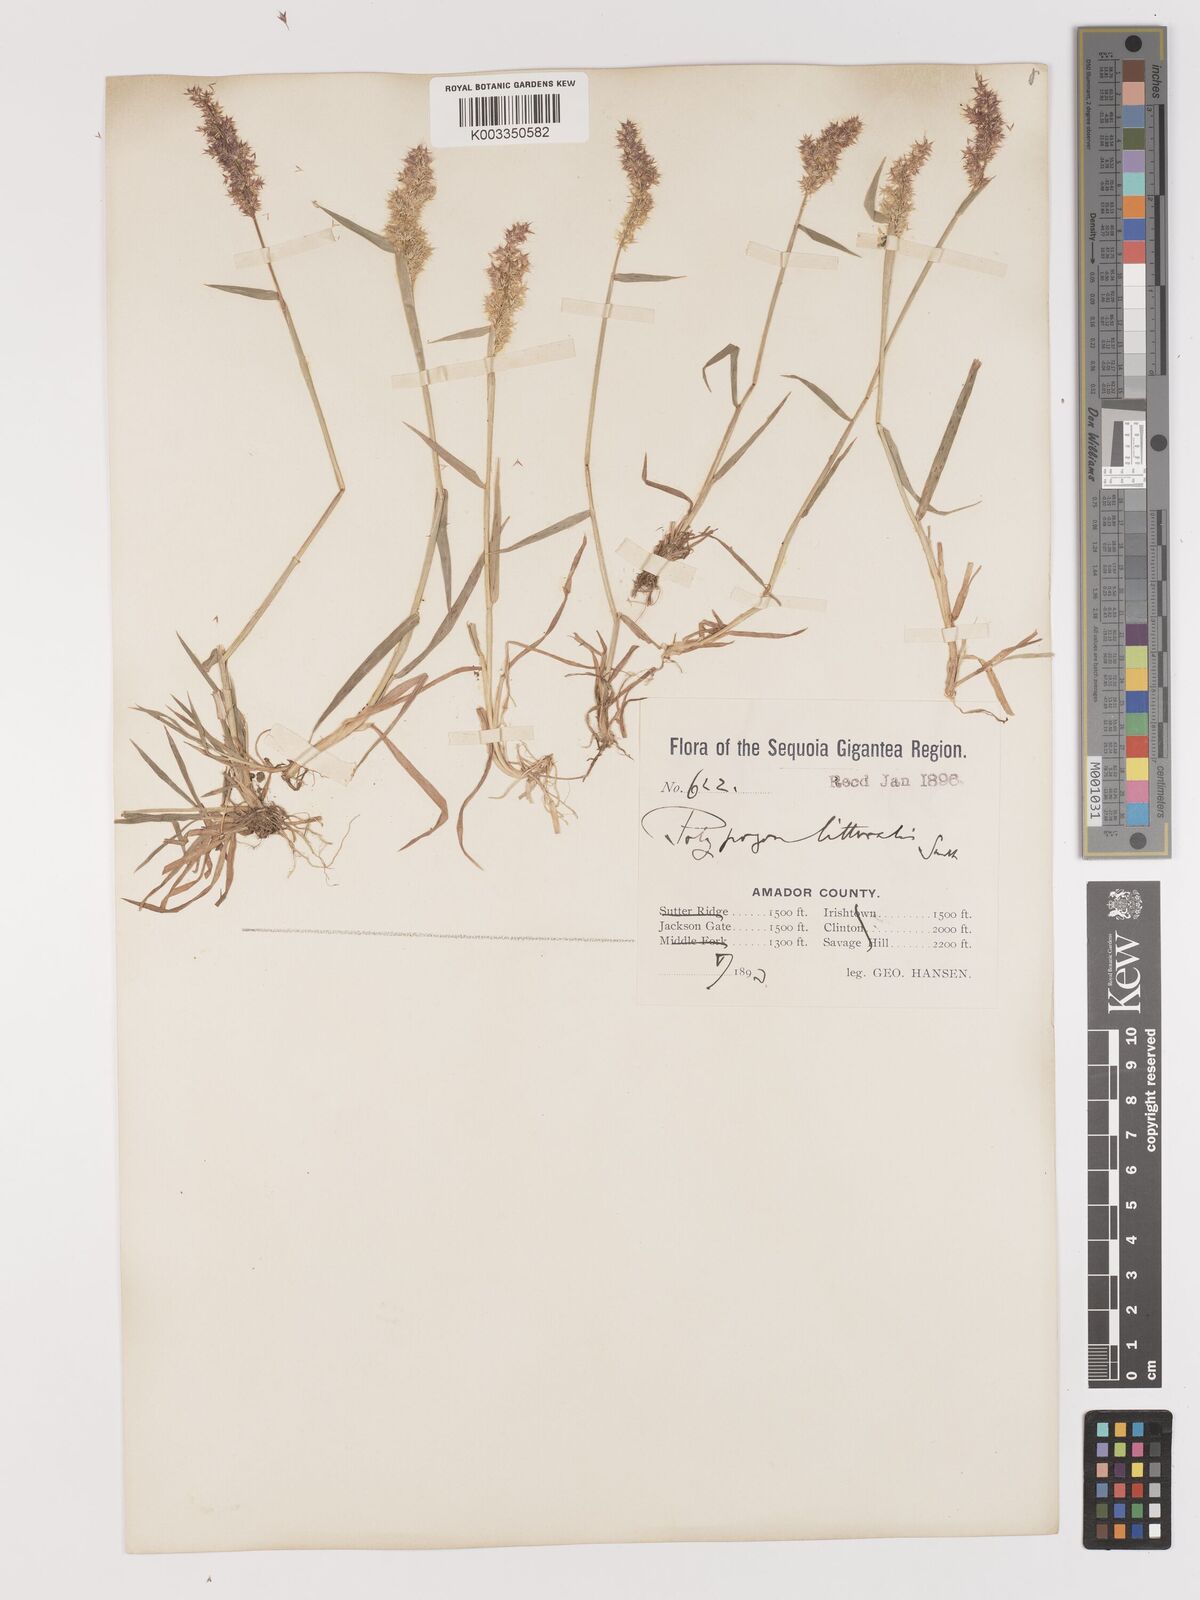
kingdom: Plantae
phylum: Tracheophyta
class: Liliopsida
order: Poales
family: Poaceae
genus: Agropogon
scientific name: Agropogon lutosus
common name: Coast agropogon
